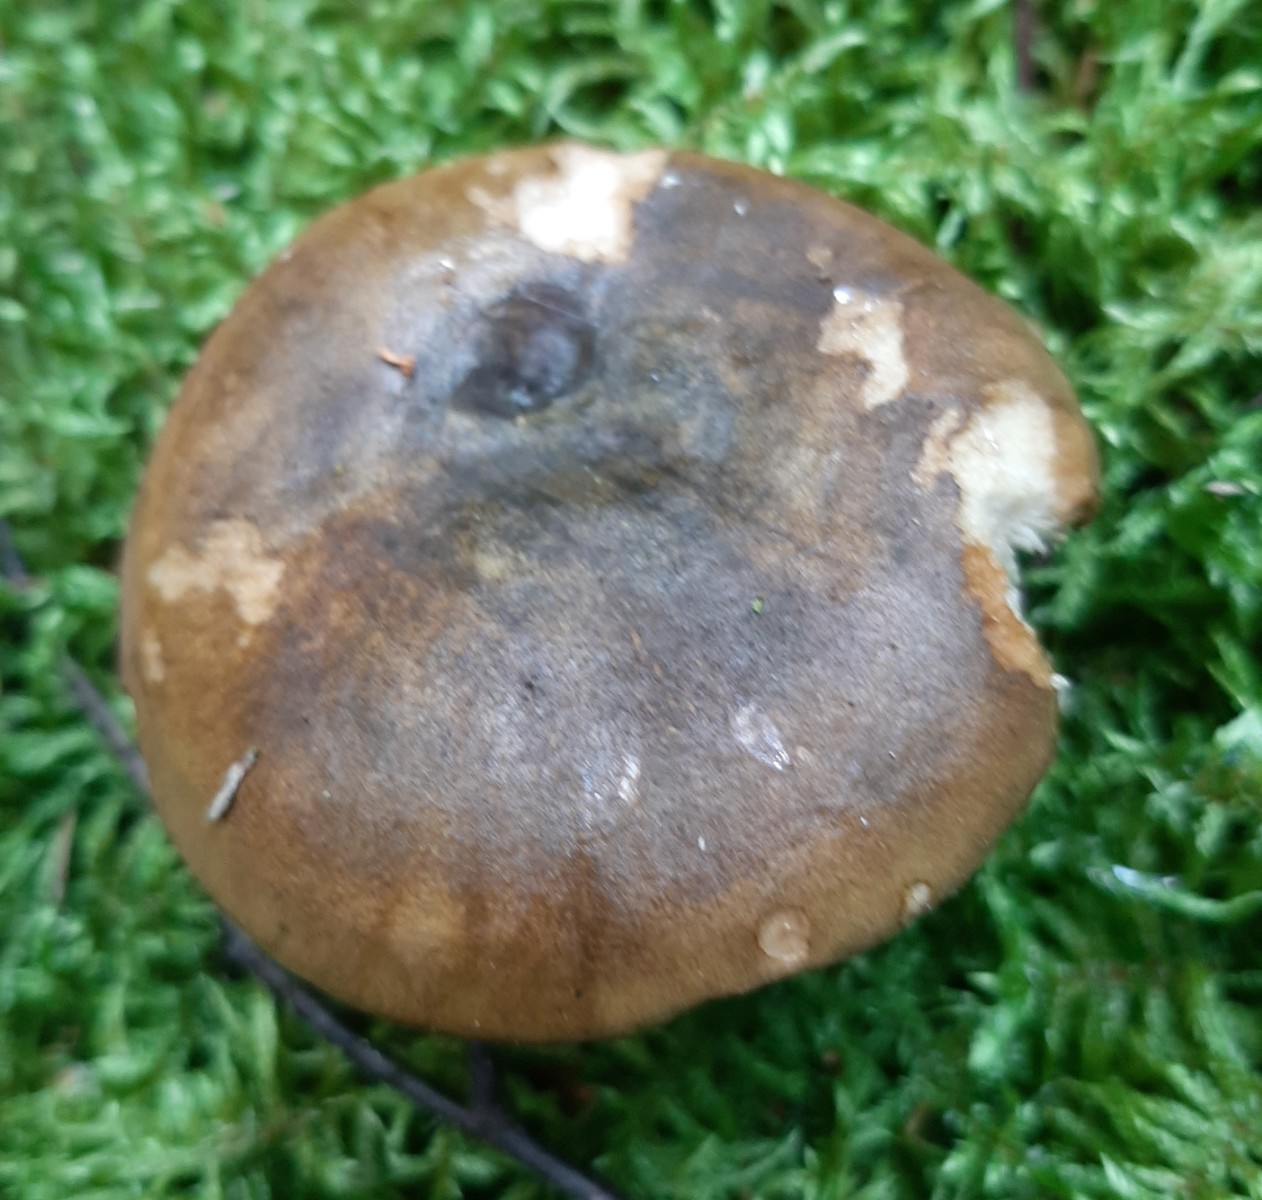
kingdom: Fungi
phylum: Basidiomycota
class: Agaricomycetes
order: Russulales
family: Russulaceae
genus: Lactarius
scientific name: Lactarius necator
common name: manddraber-mælkehat
